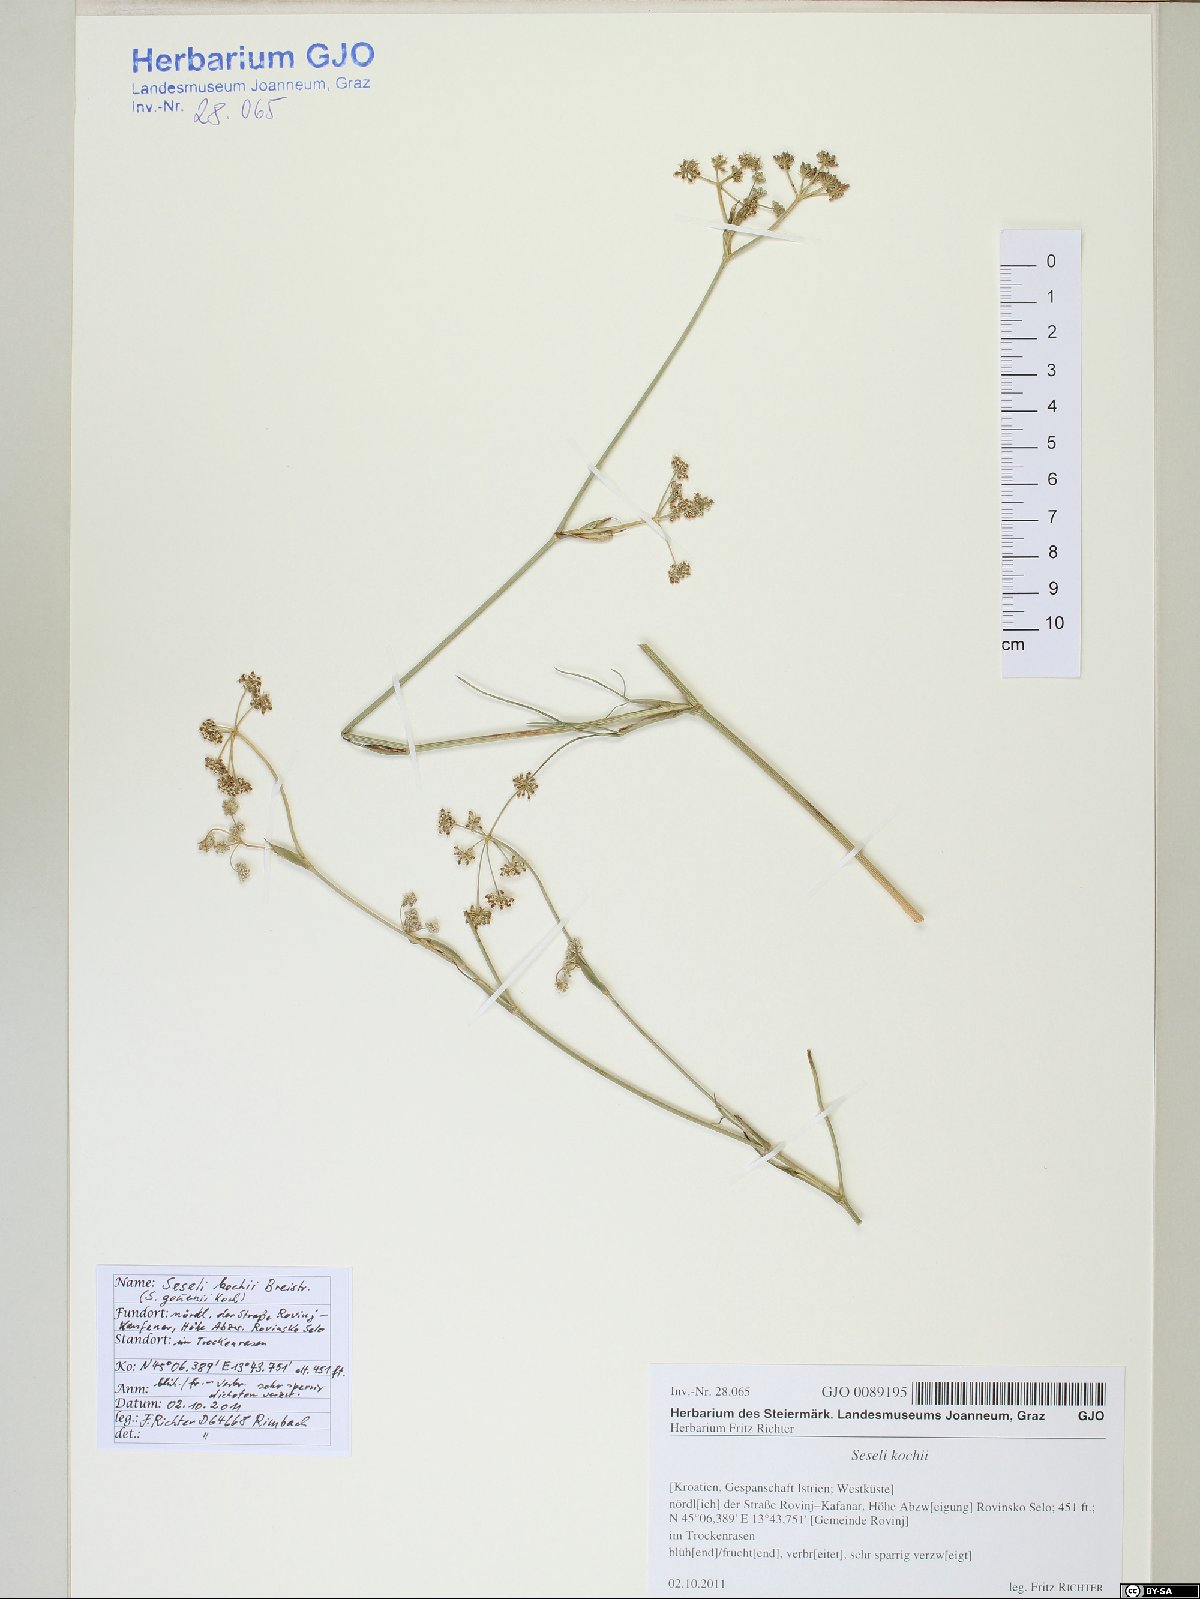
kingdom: Plantae
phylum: Tracheophyta
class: Magnoliopsida
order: Apiales
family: Apiaceae
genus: Seseli
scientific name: Seseli gouanii
